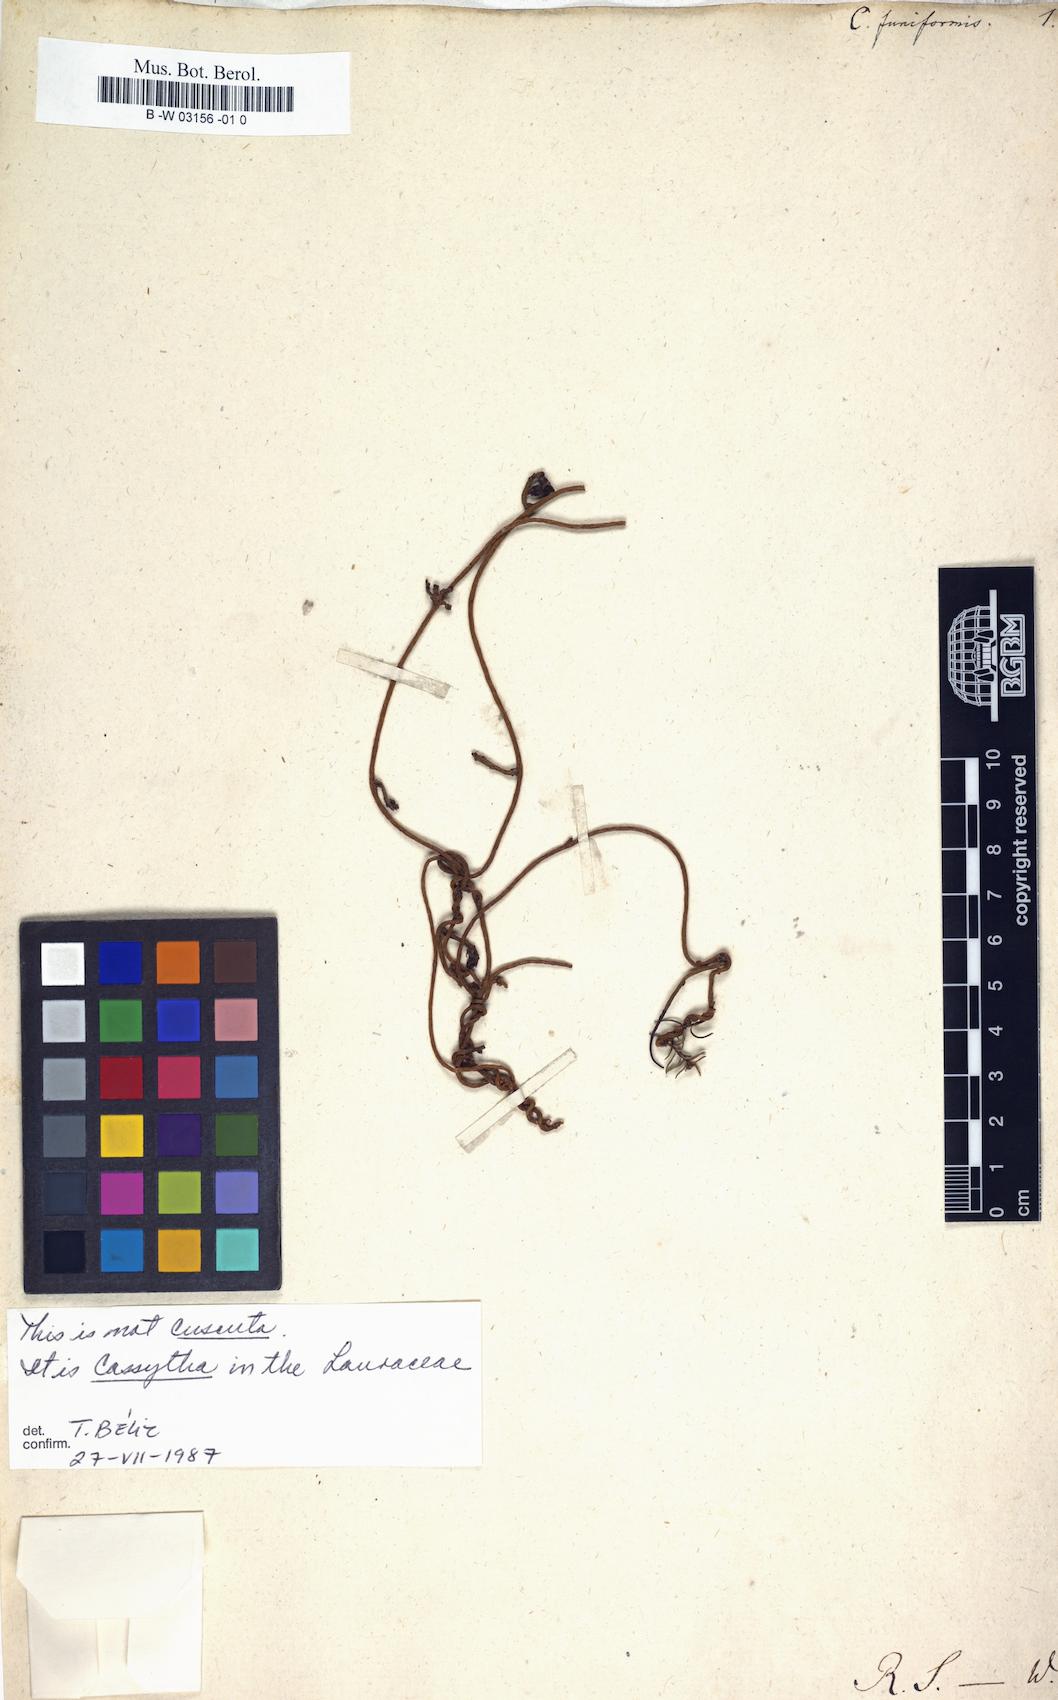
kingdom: Plantae
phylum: Tracheophyta
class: Magnoliopsida
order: Solanales
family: Convolvulaceae
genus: Cuscuta
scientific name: Cuscuta funiformis
